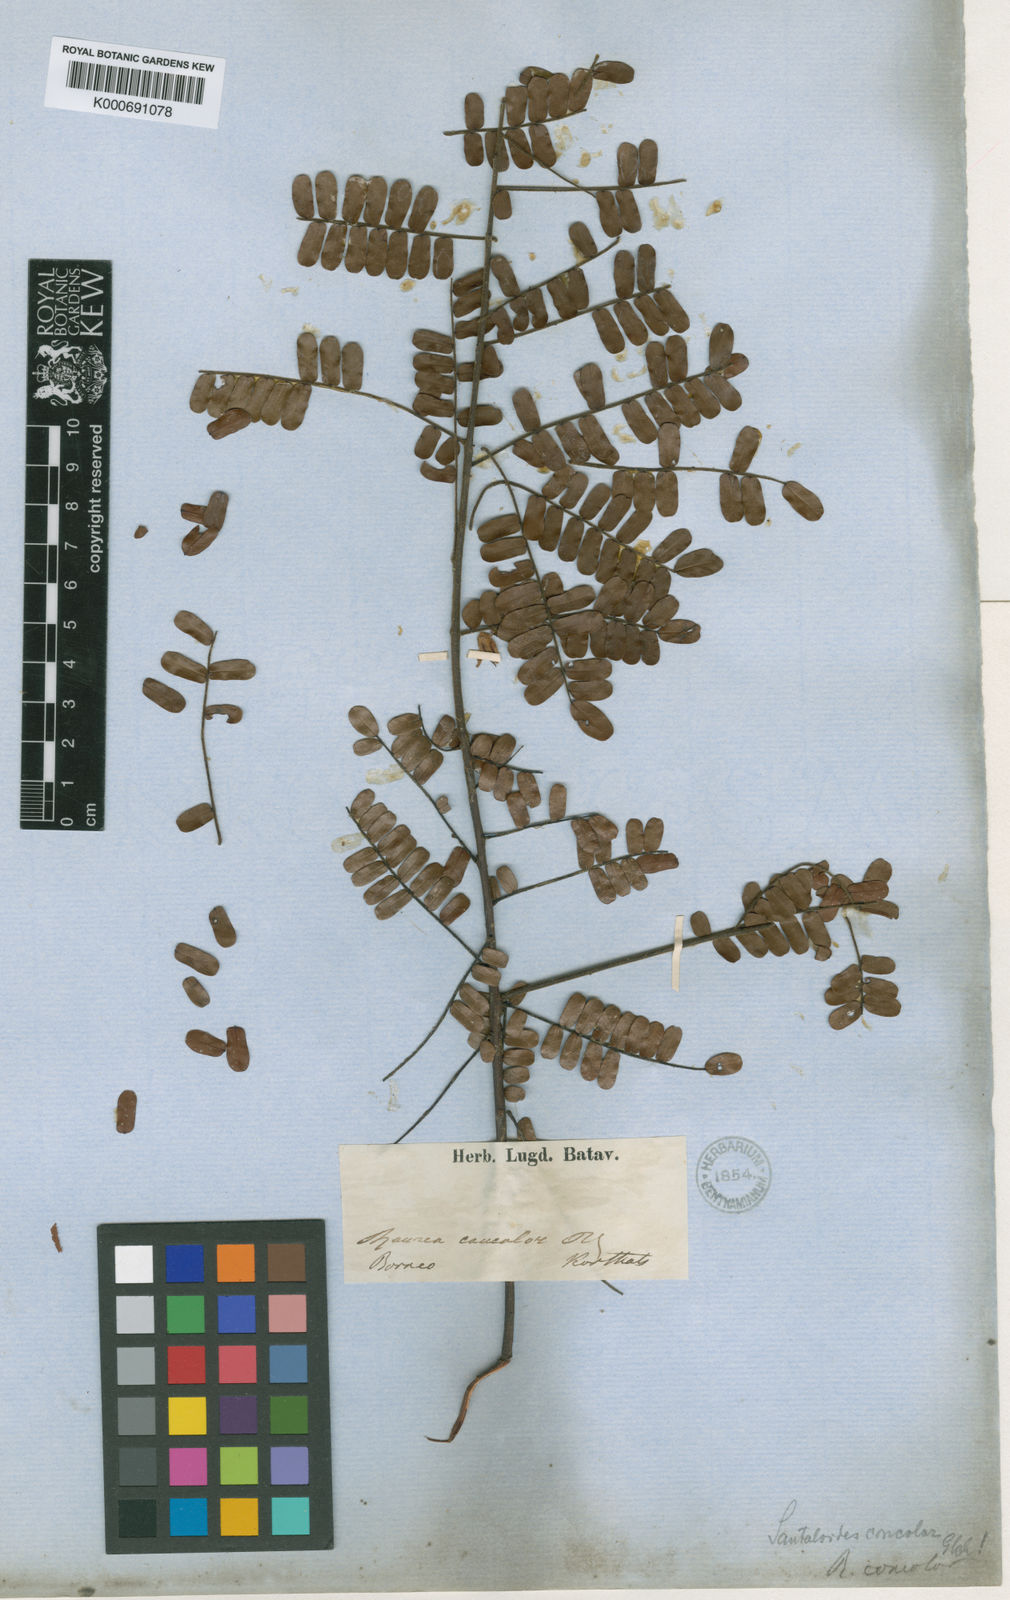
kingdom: Plantae
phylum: Tracheophyta
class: Magnoliopsida
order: Oxalidales
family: Connaraceae
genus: Rourea
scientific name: Rourea mimosoides
